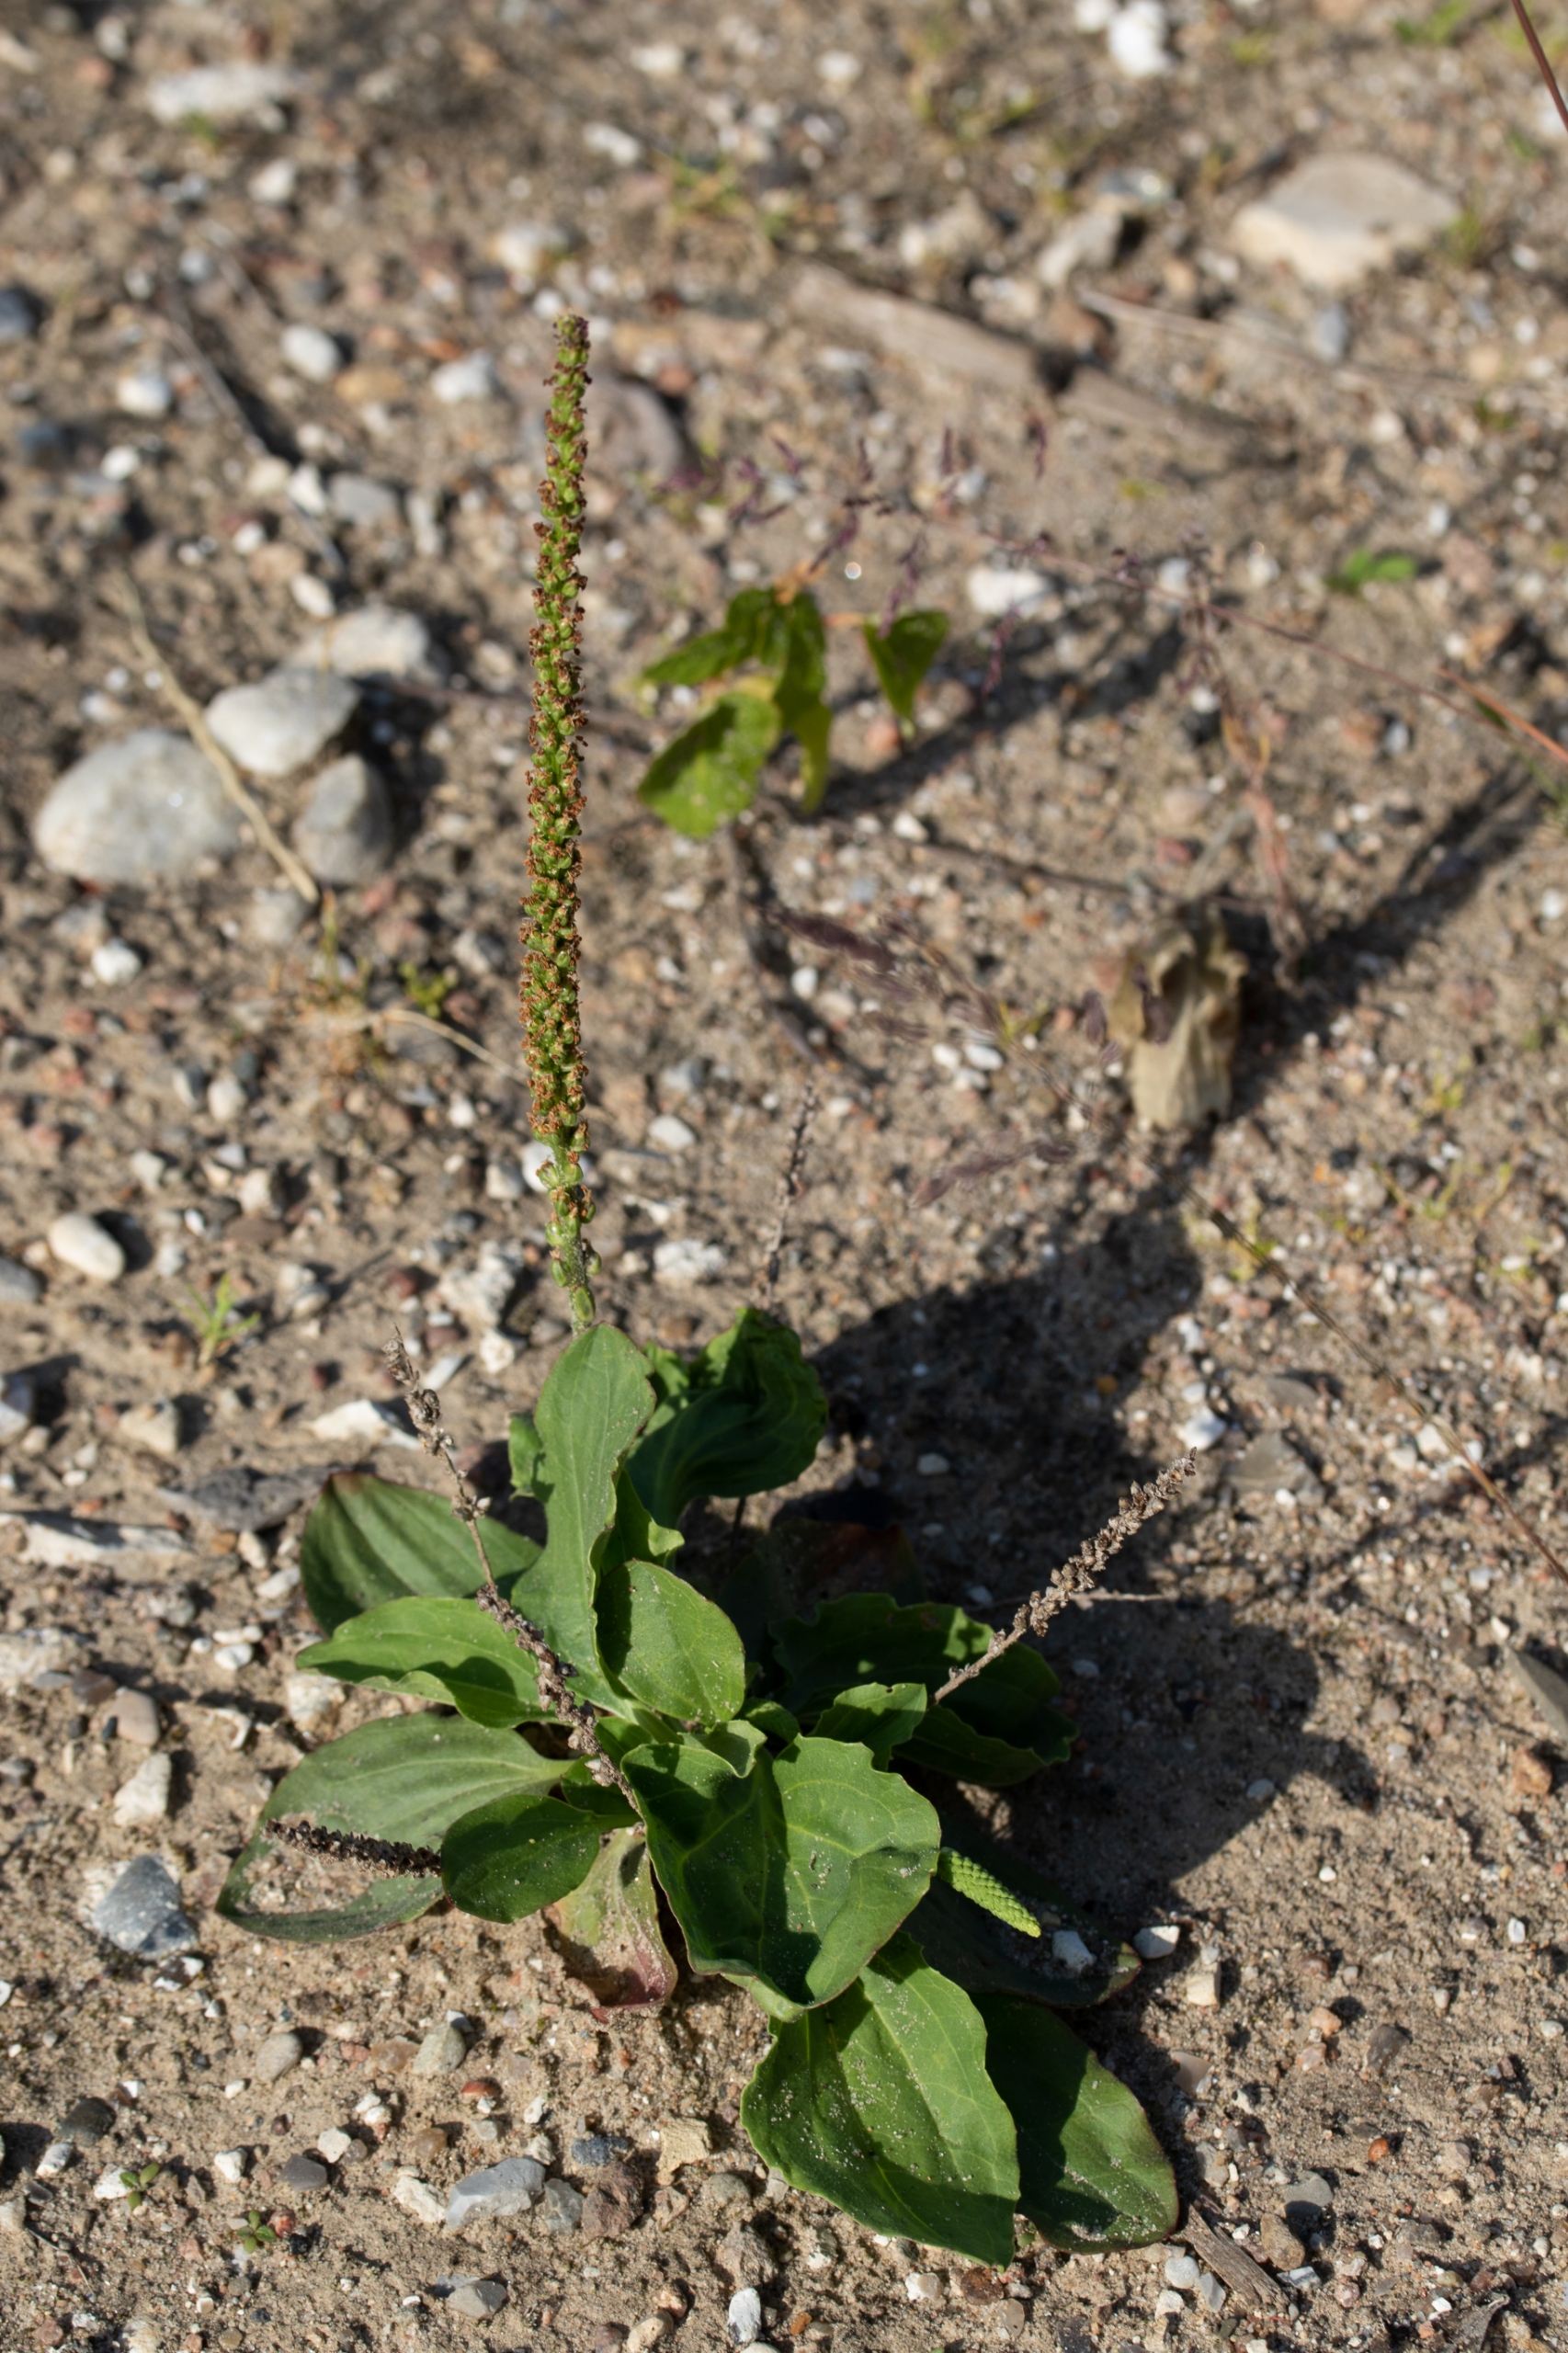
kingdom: Plantae
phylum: Tracheophyta
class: Magnoliopsida
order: Lamiales
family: Plantaginaceae
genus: Plantago
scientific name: Plantago major
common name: Glat vejbred
